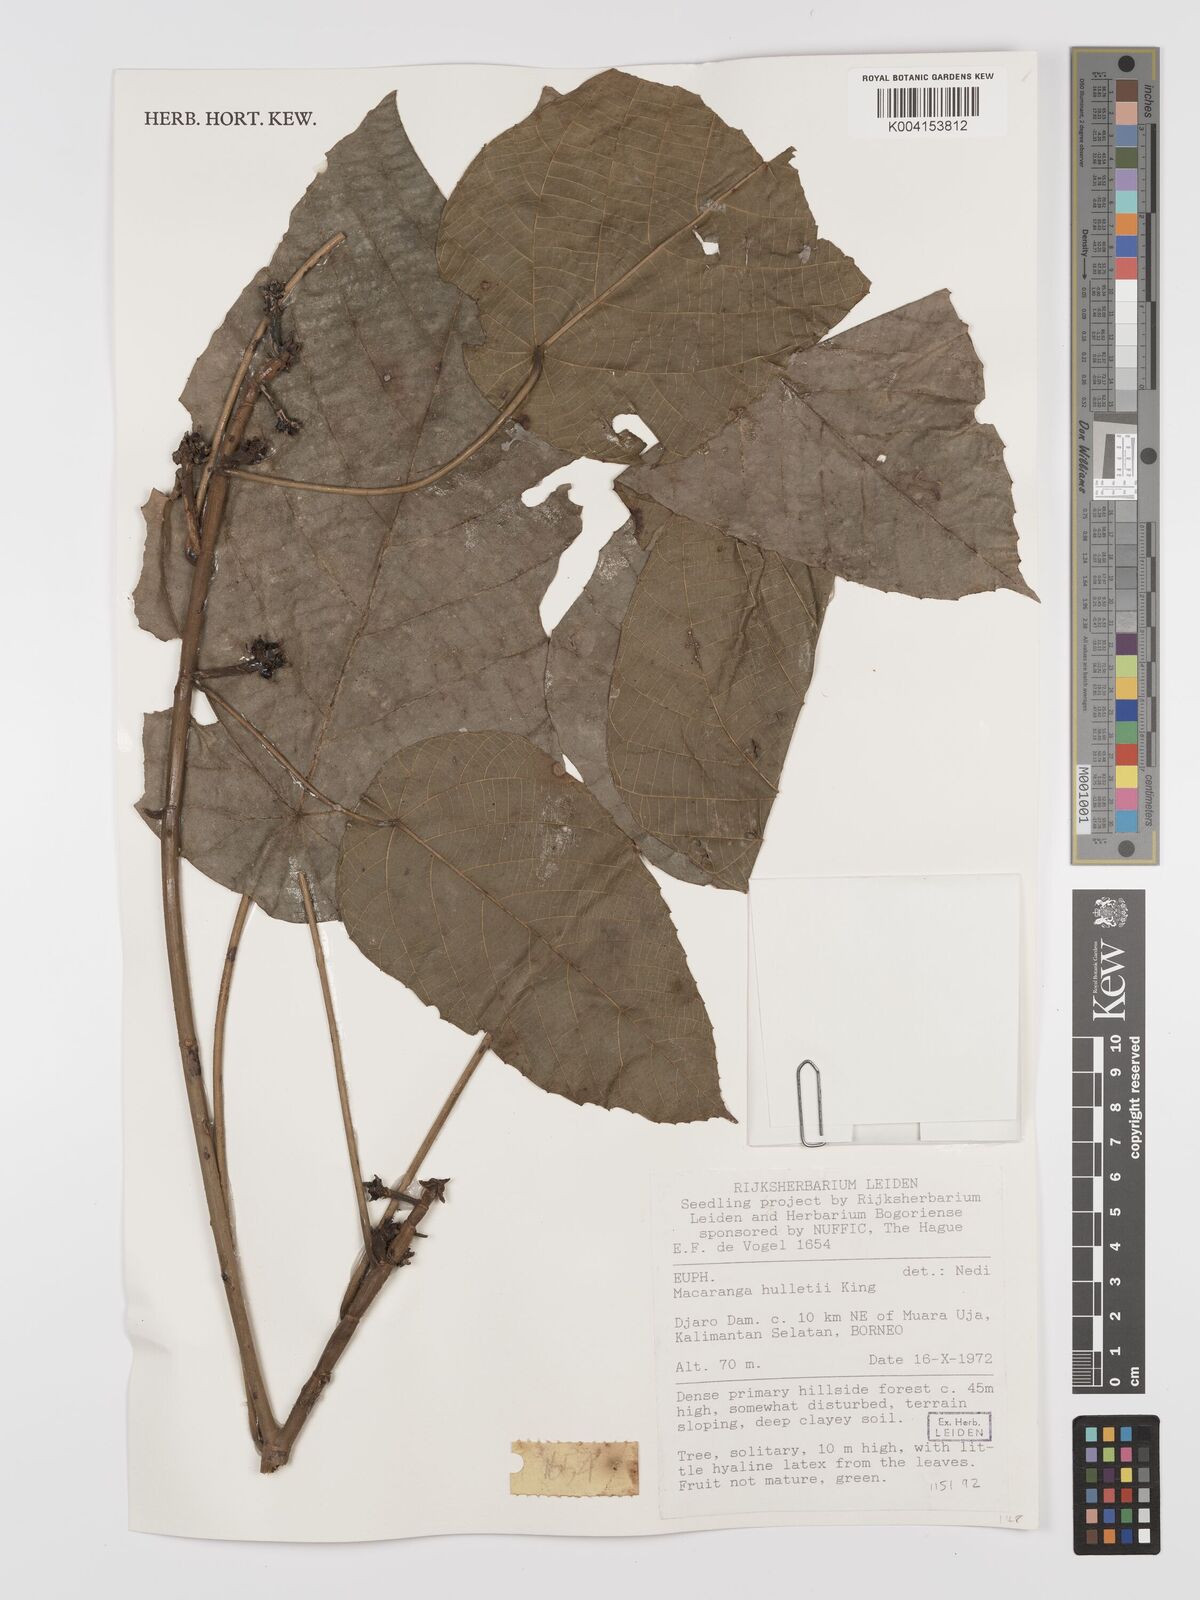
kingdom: Plantae
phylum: Tracheophyta
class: Magnoliopsida
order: Malpighiales
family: Euphorbiaceae
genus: Macaranga
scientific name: Macaranga hullettii
